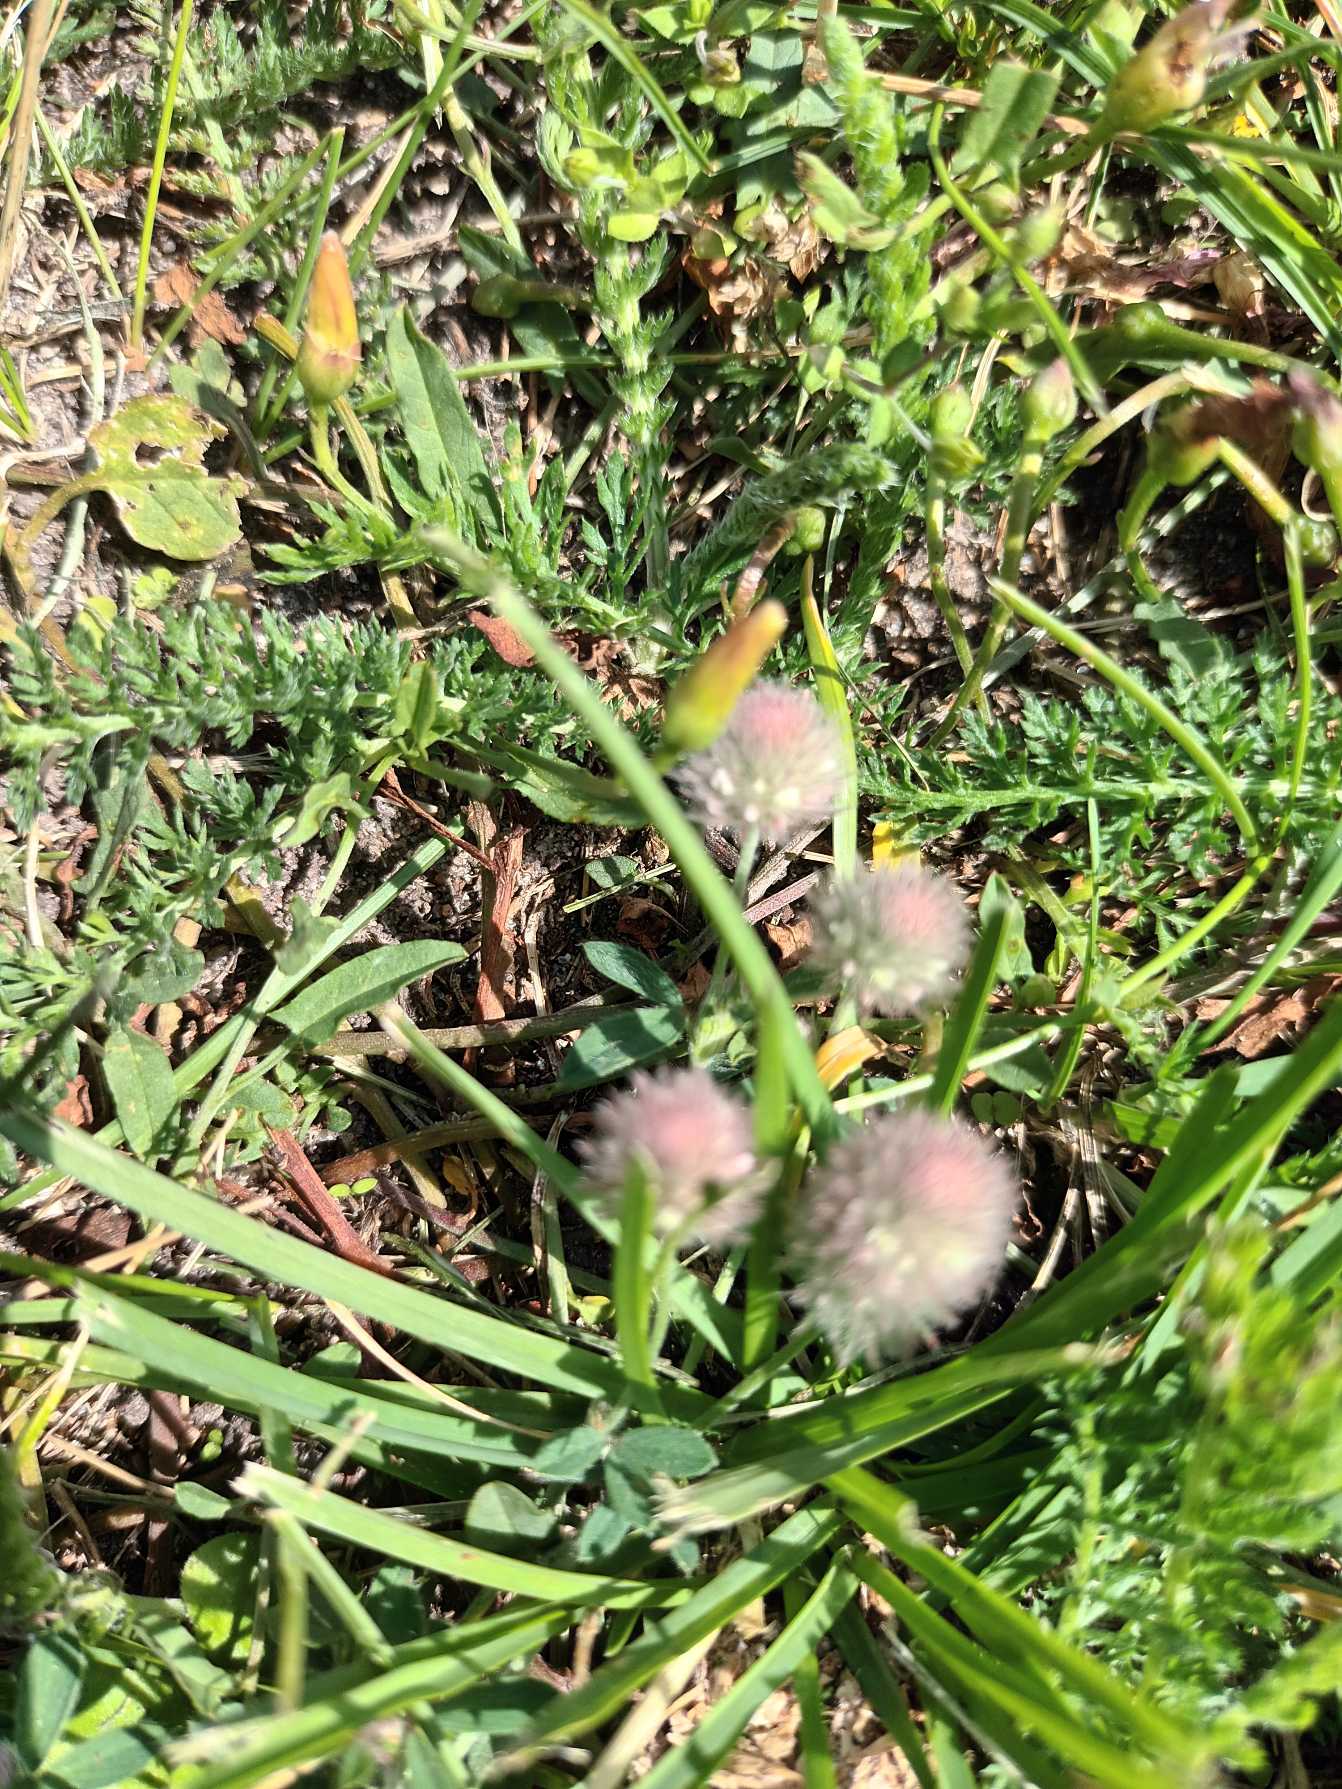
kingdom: Plantae
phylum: Tracheophyta
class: Magnoliopsida
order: Fabales
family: Fabaceae
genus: Trifolium
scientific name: Trifolium arvense
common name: Hare-kløver
